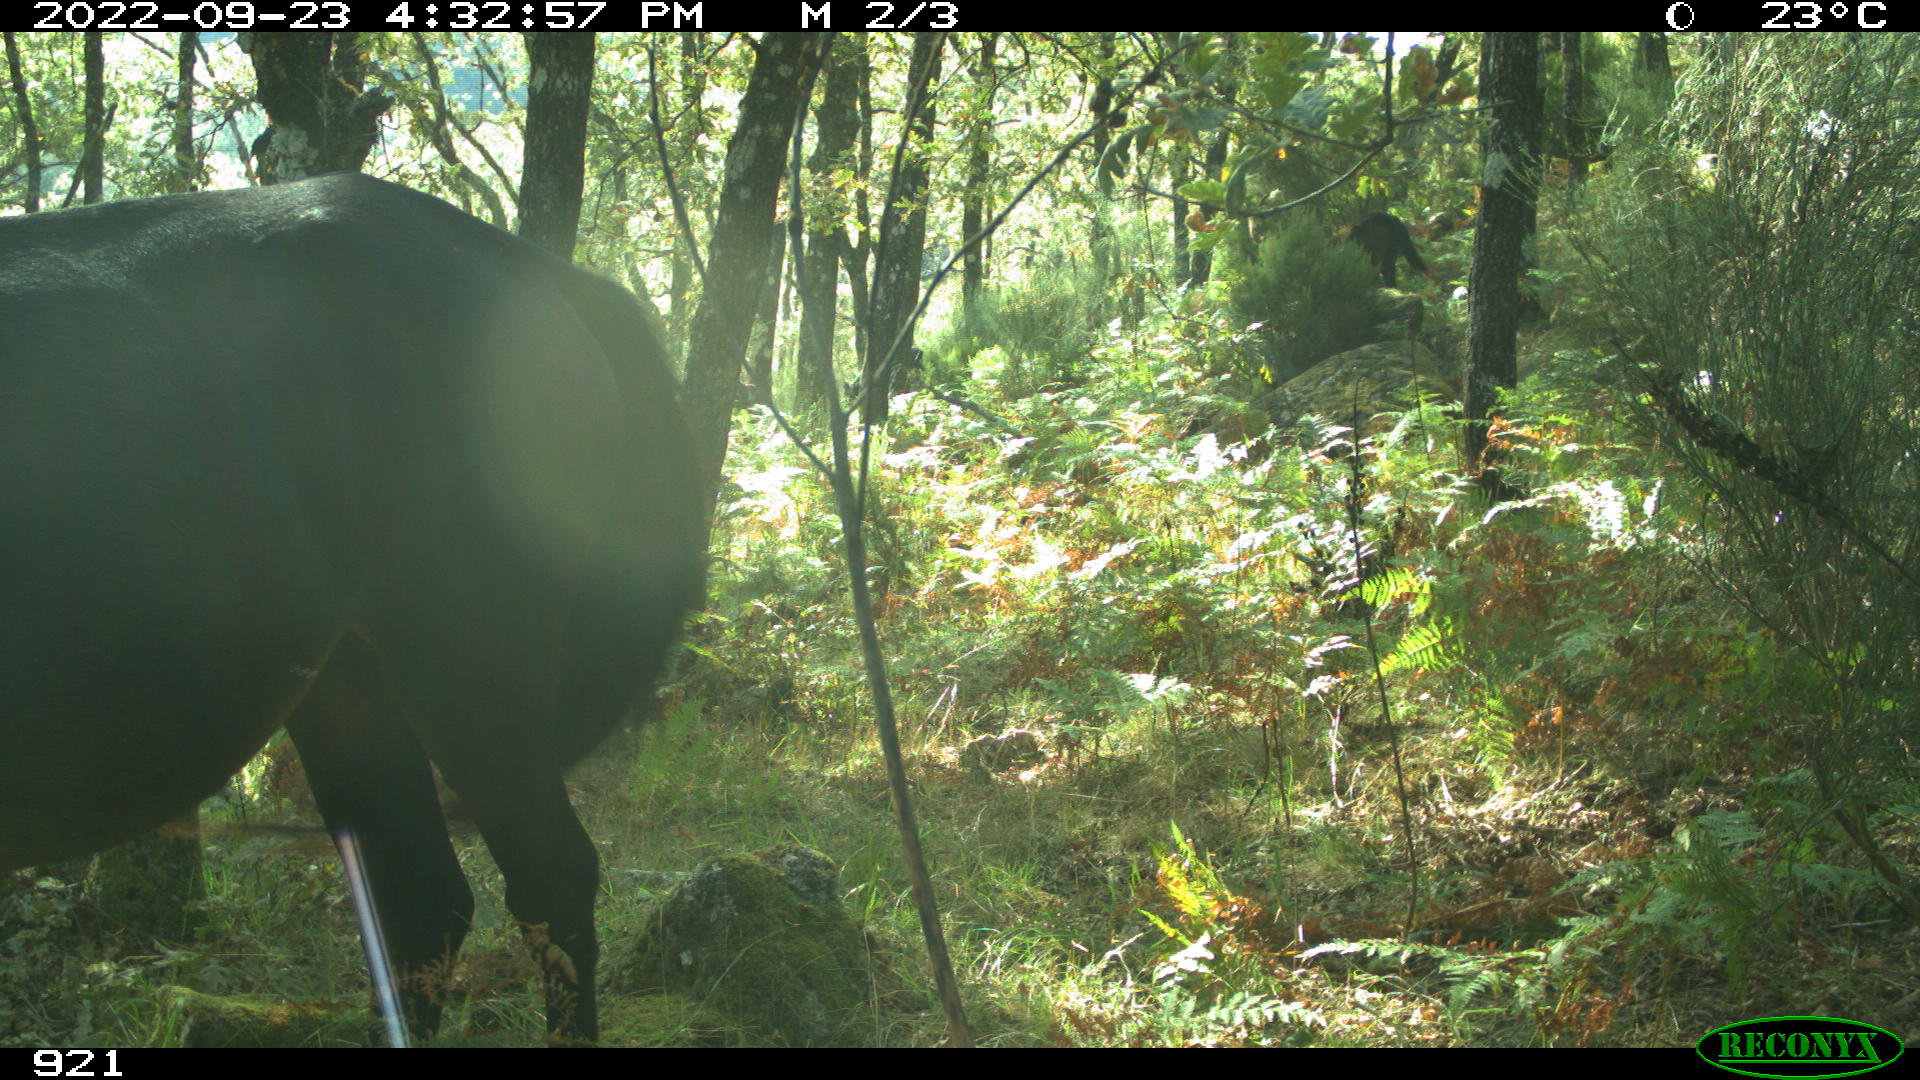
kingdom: Animalia
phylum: Chordata
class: Mammalia
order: Perissodactyla
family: Equidae
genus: Equus
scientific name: Equus caballus
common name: Horse
